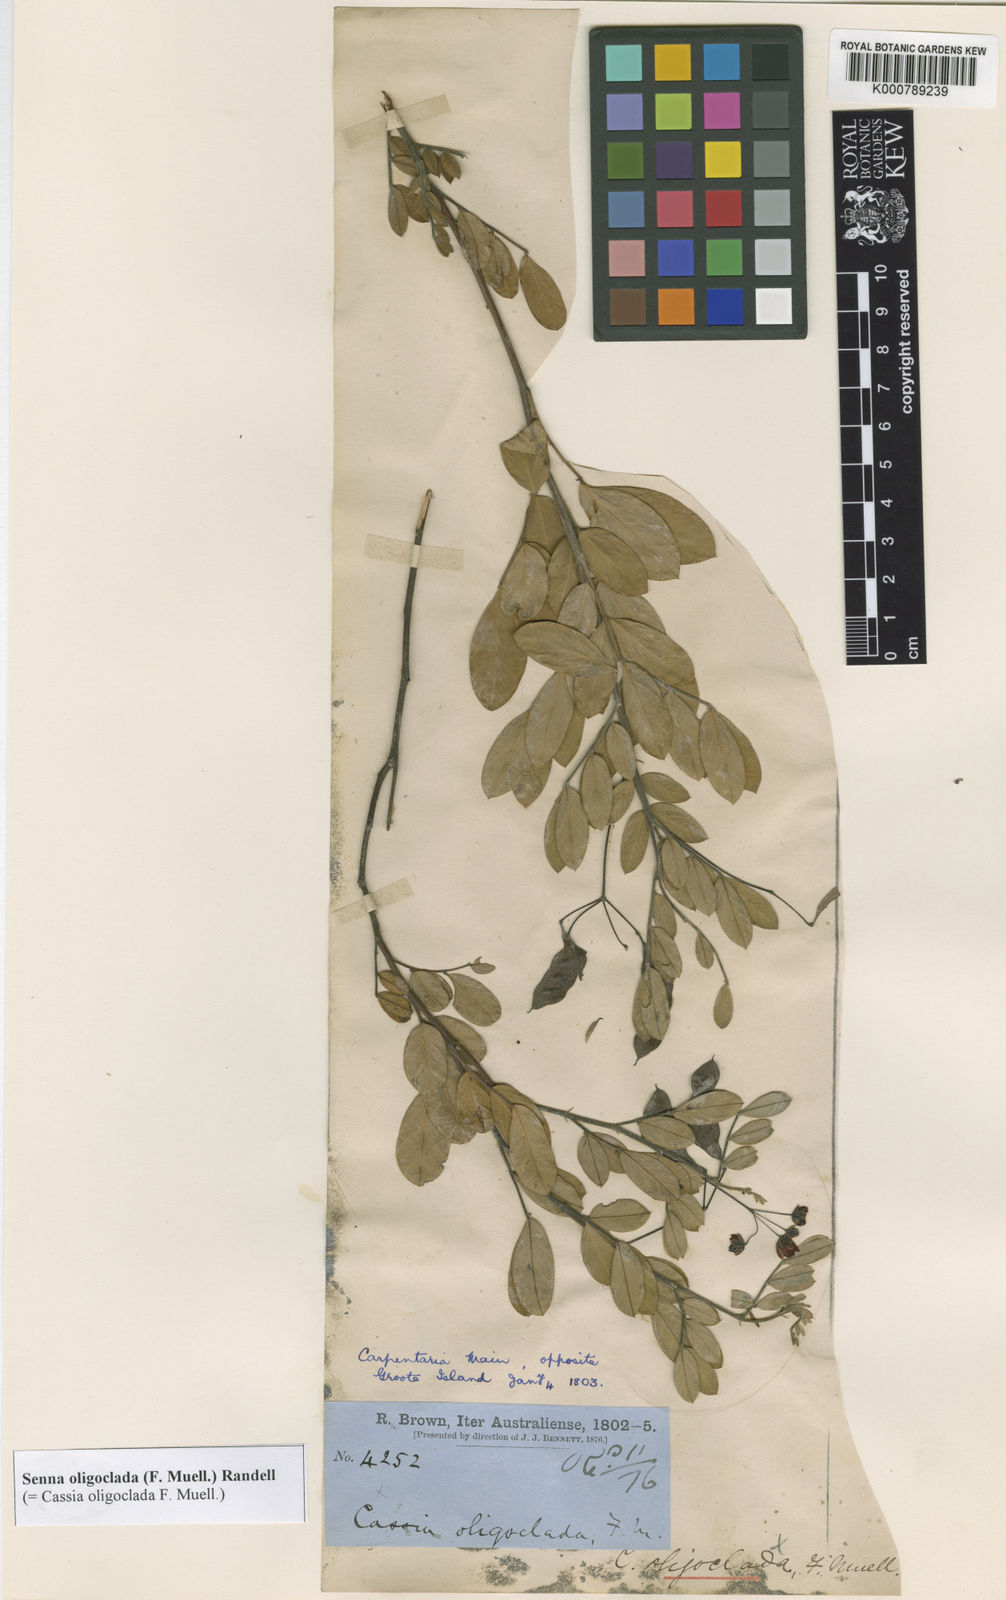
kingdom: Plantae
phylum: Tracheophyta
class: Magnoliopsida
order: Fabales
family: Fabaceae
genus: Senna
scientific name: Senna oligoclada
